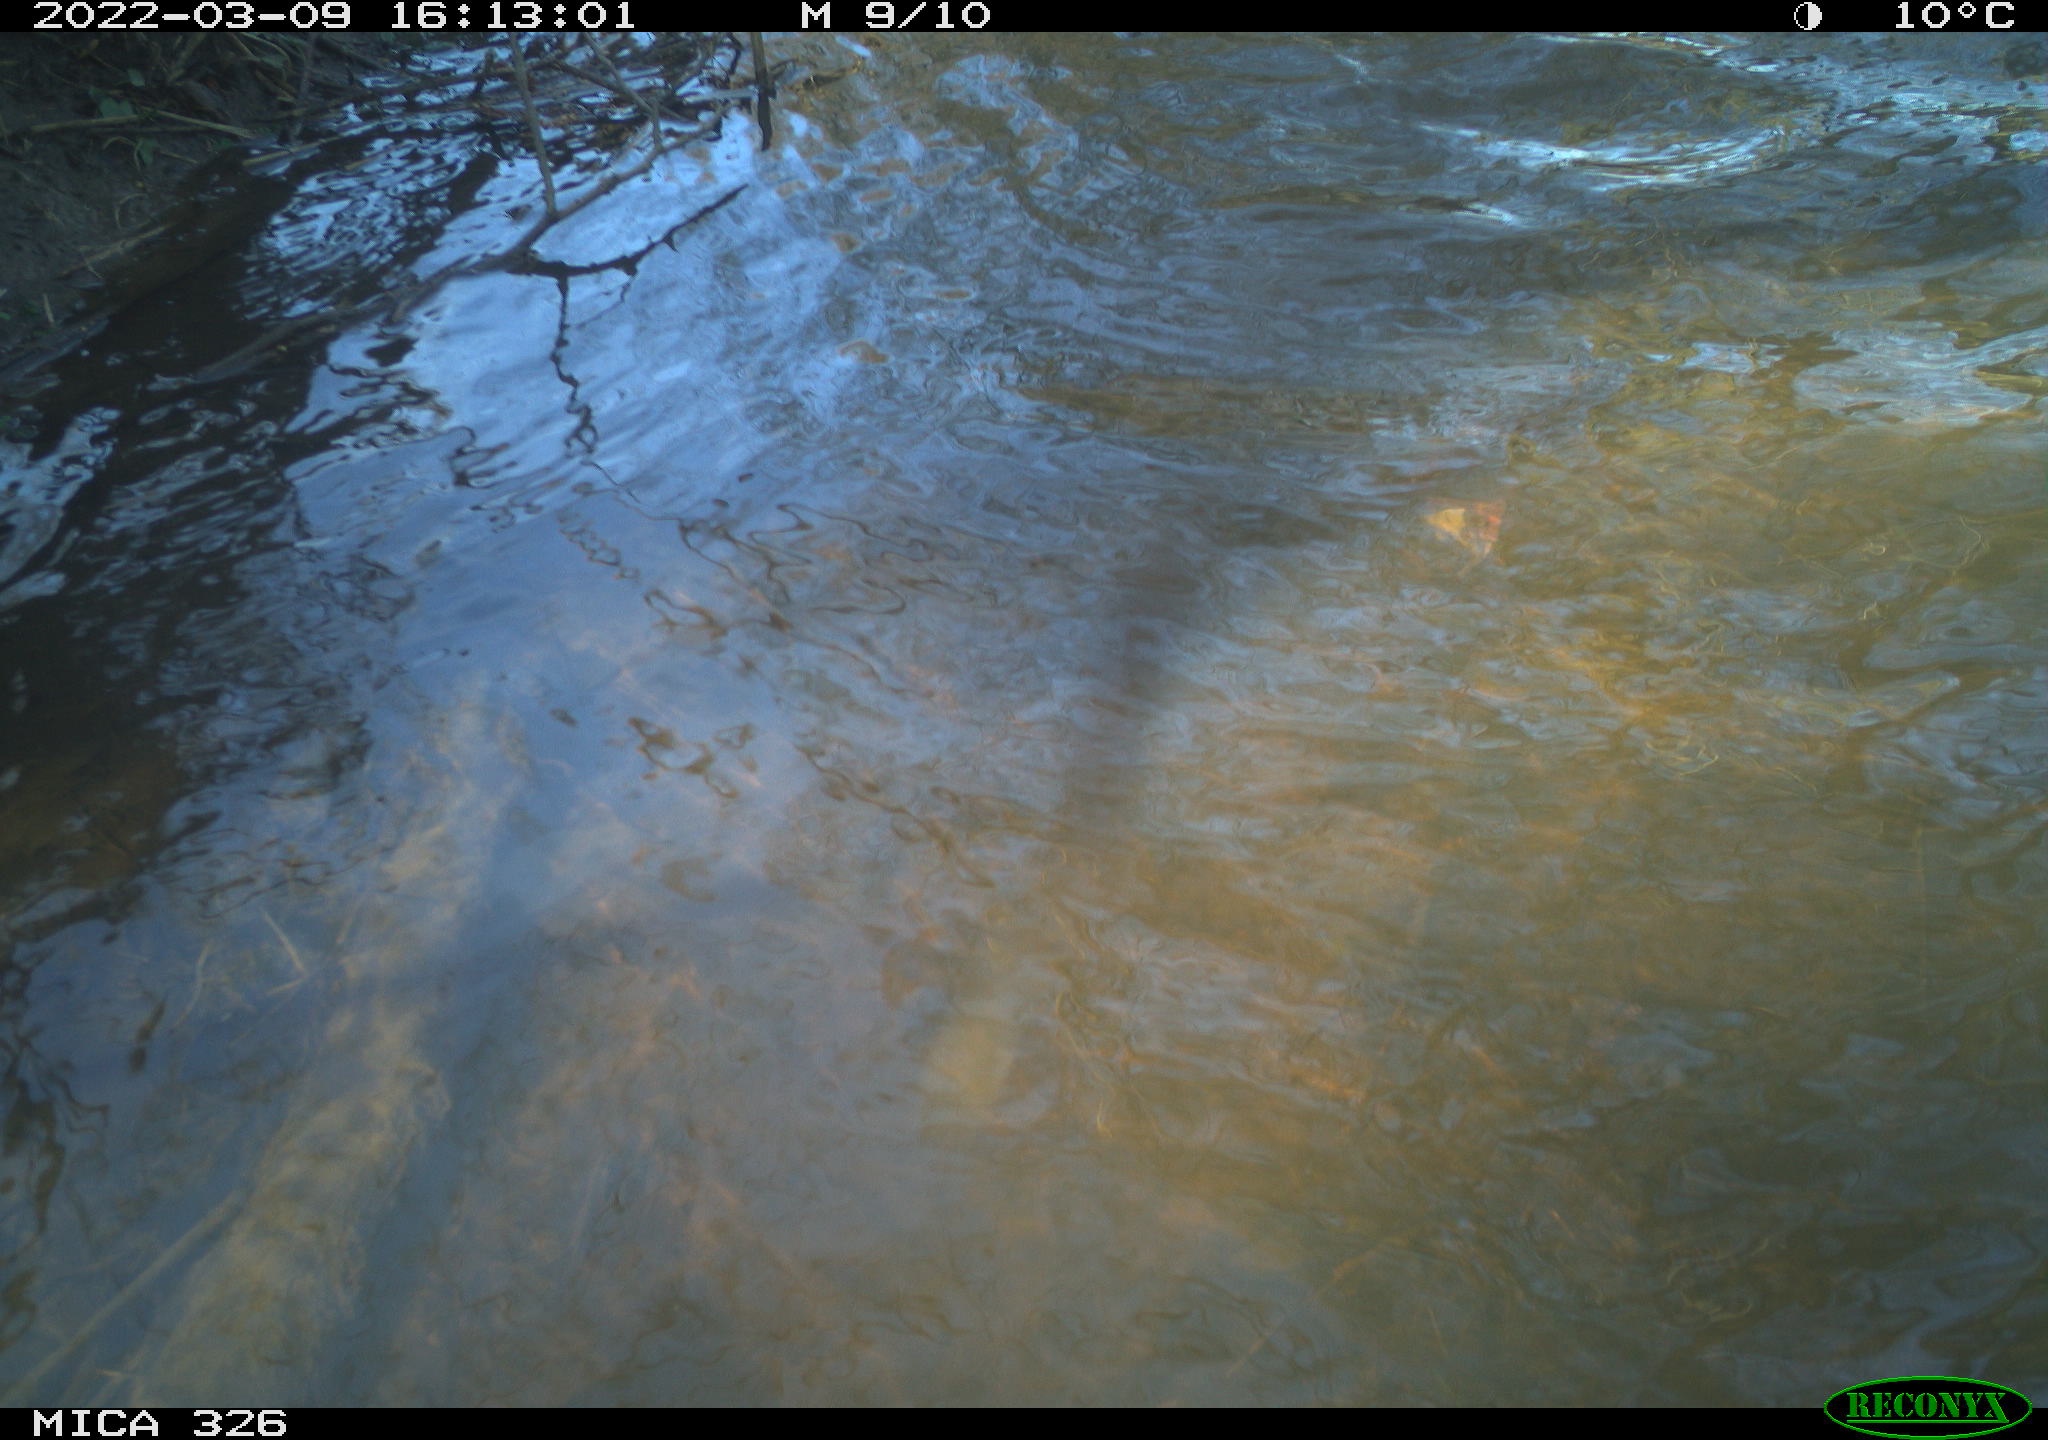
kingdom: Animalia
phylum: Chordata
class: Mammalia
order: Rodentia
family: Cricetidae
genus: Ondatra
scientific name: Ondatra zibethicus
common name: Muskrat
